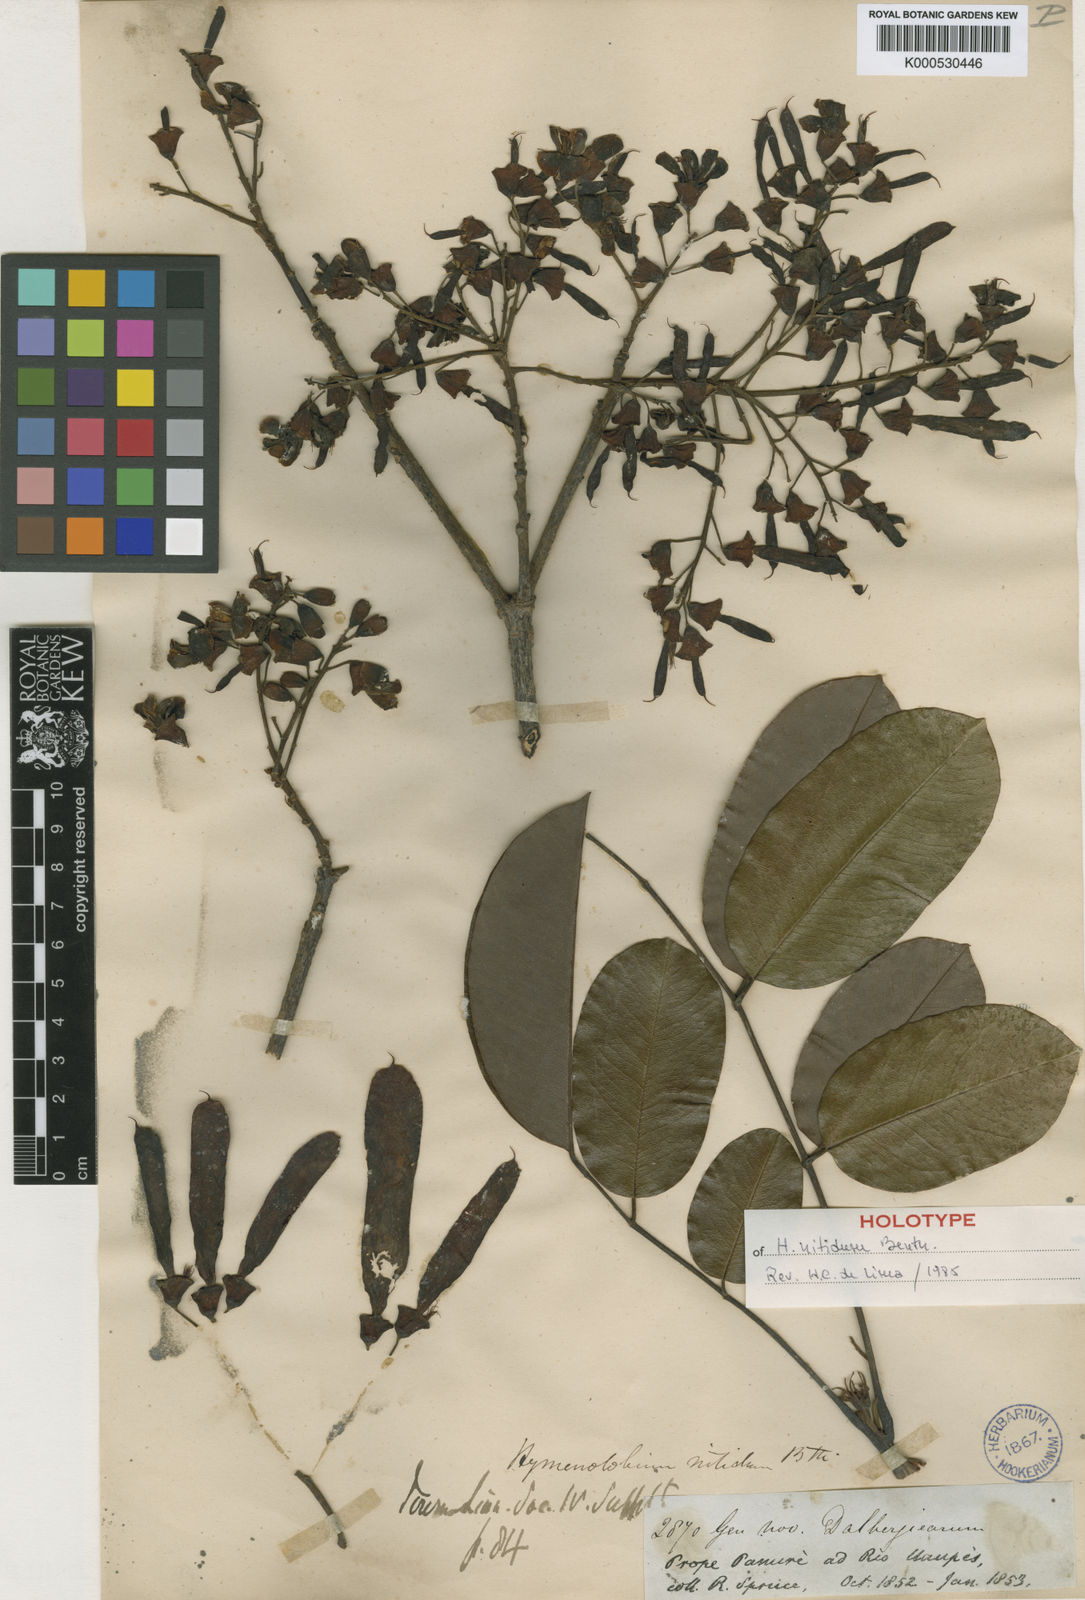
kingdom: Plantae
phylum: Tracheophyta
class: Magnoliopsida
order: Fabales
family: Fabaceae
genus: Hymenolobium
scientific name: Hymenolobium nitidum
